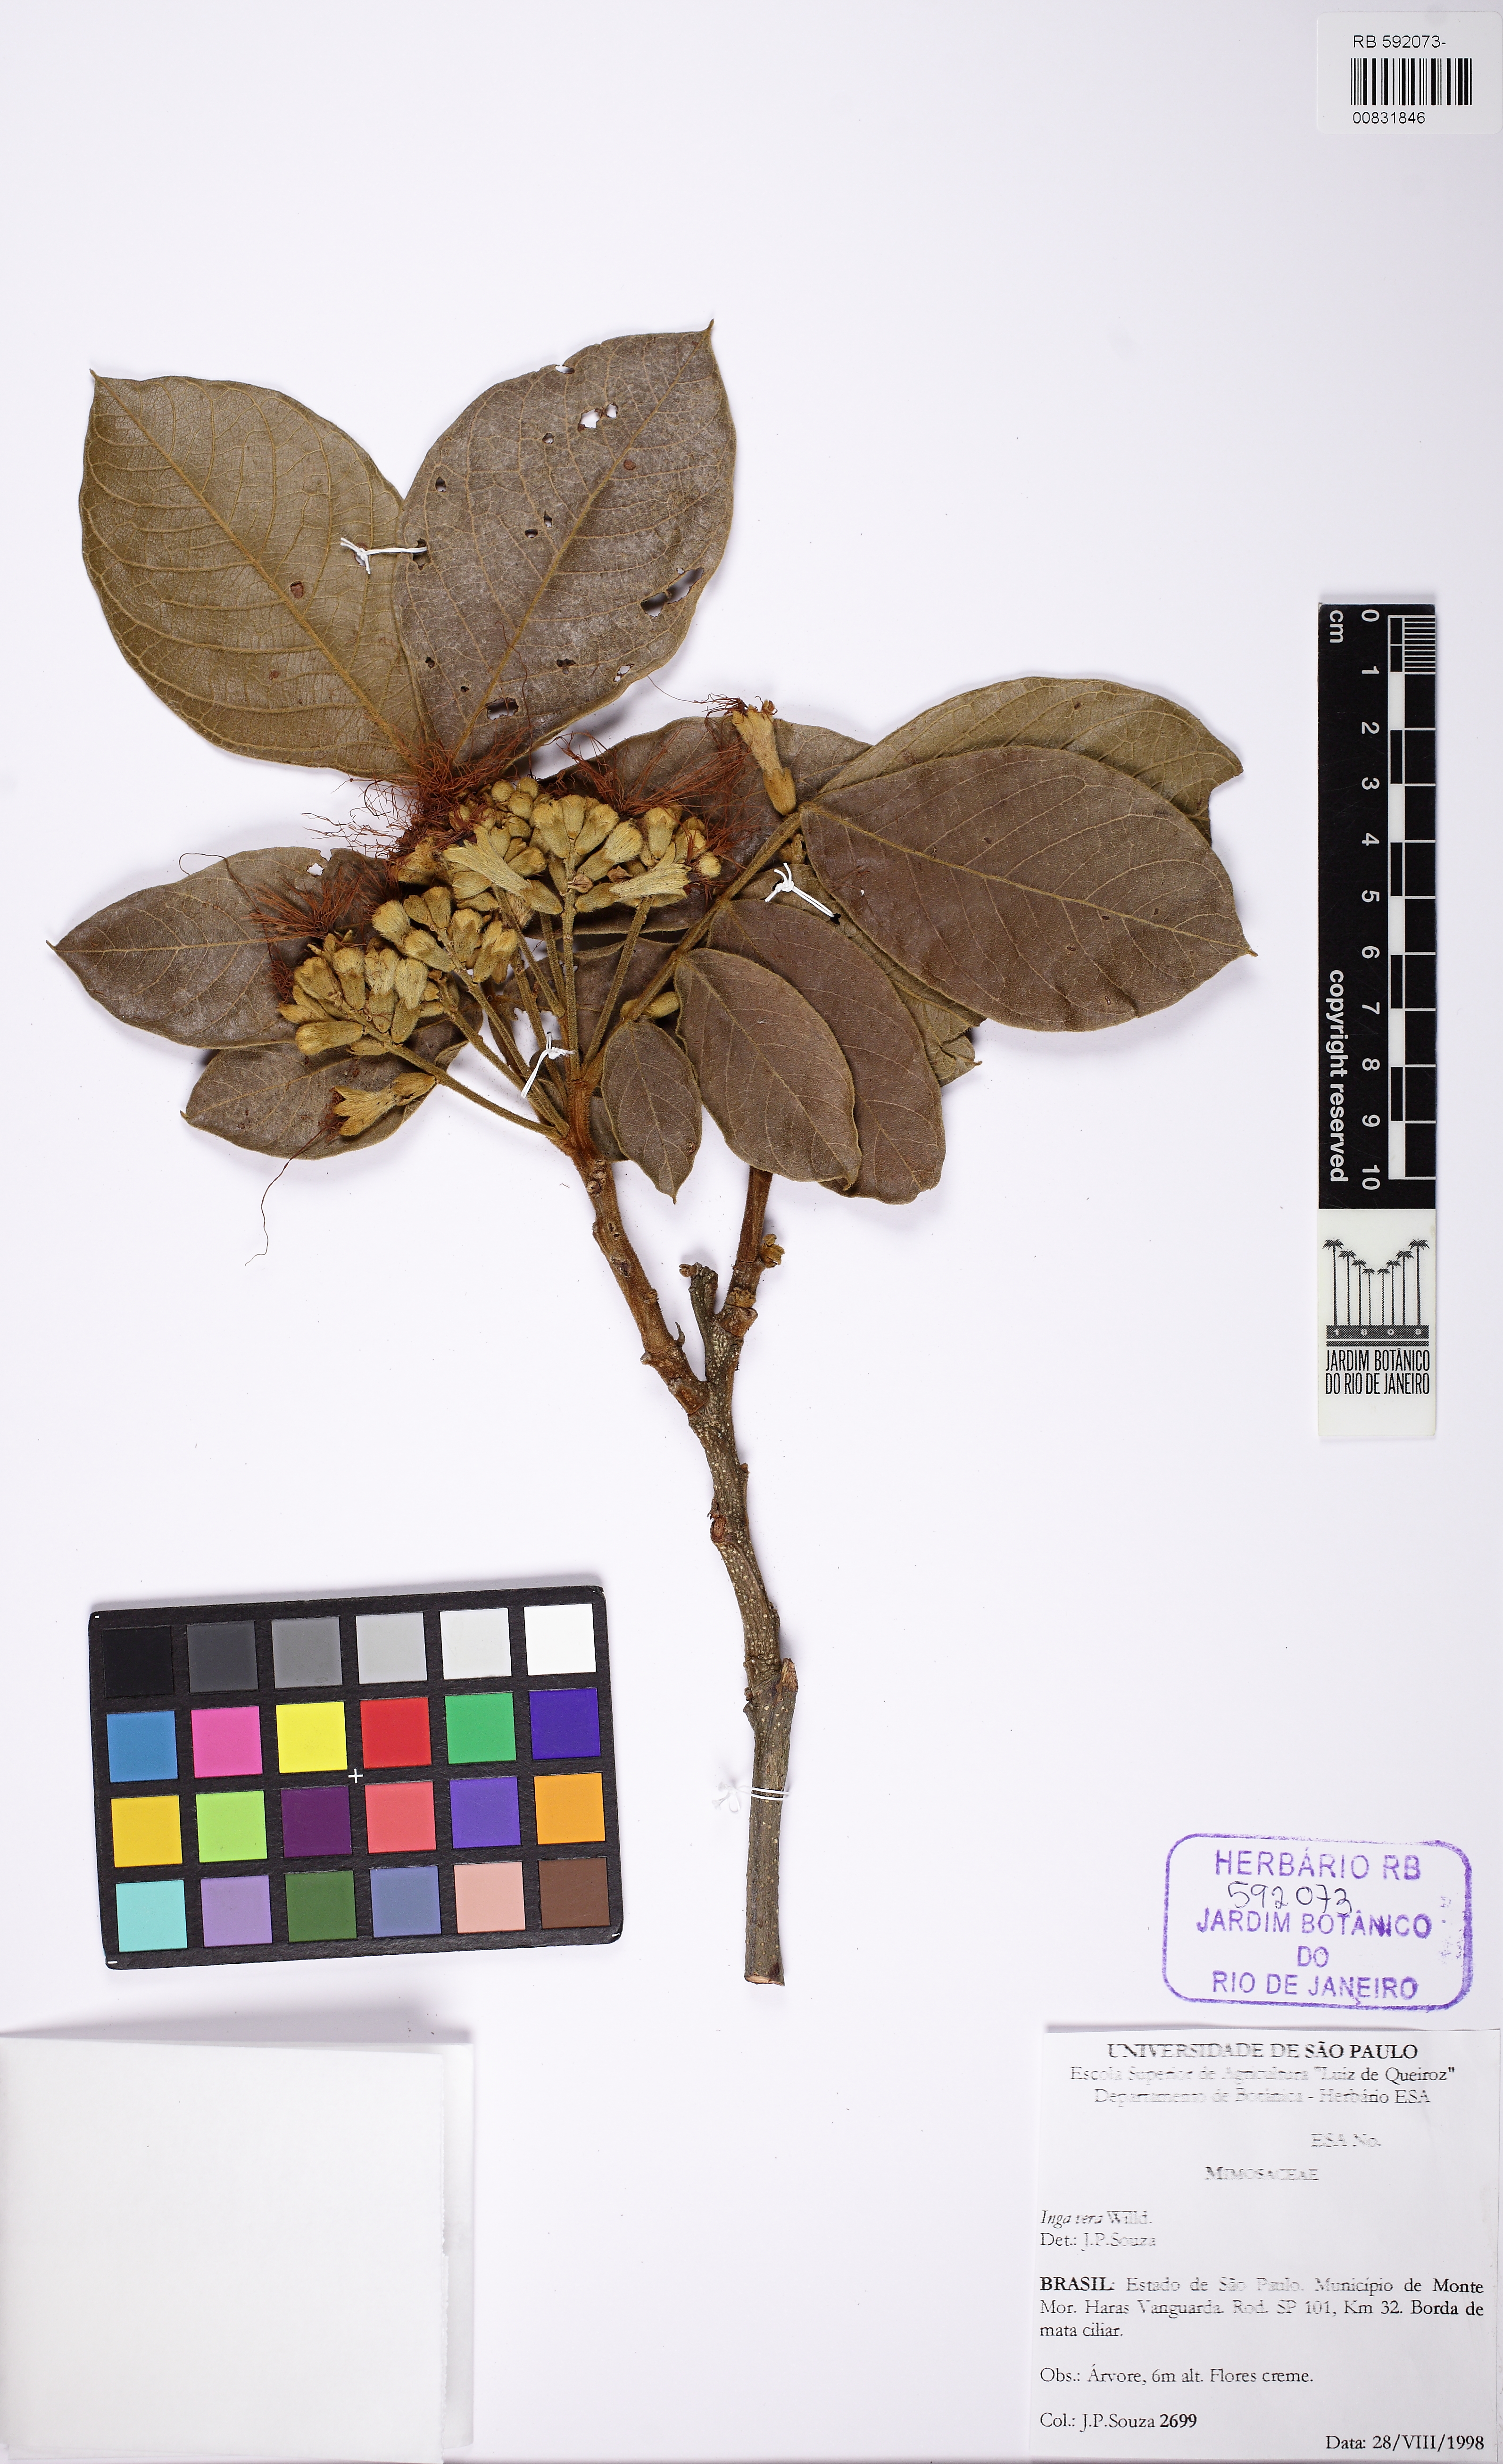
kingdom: Plantae
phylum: Tracheophyta
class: Magnoliopsida
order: Fabales
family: Fabaceae
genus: Inga
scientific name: Inga vera
